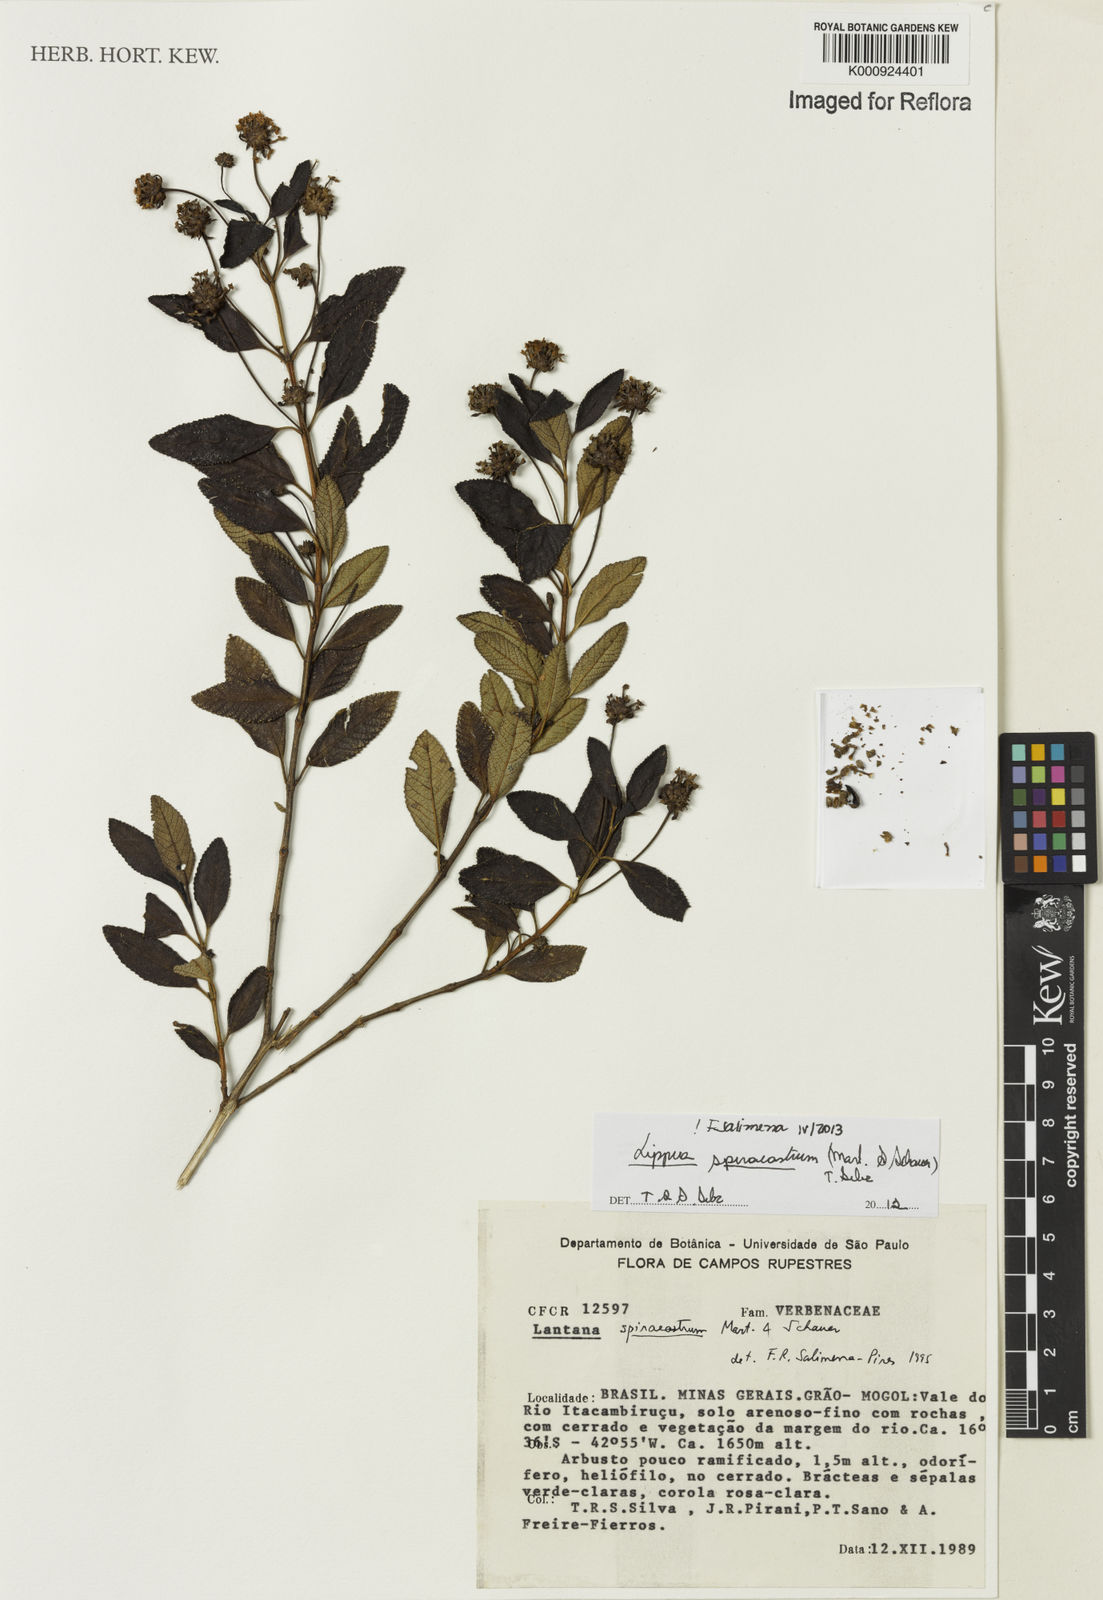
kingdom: Plantae
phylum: Tracheophyta
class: Magnoliopsida
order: Lamiales
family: Verbenaceae
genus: Lippia
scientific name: Lippia spiraeastrum
